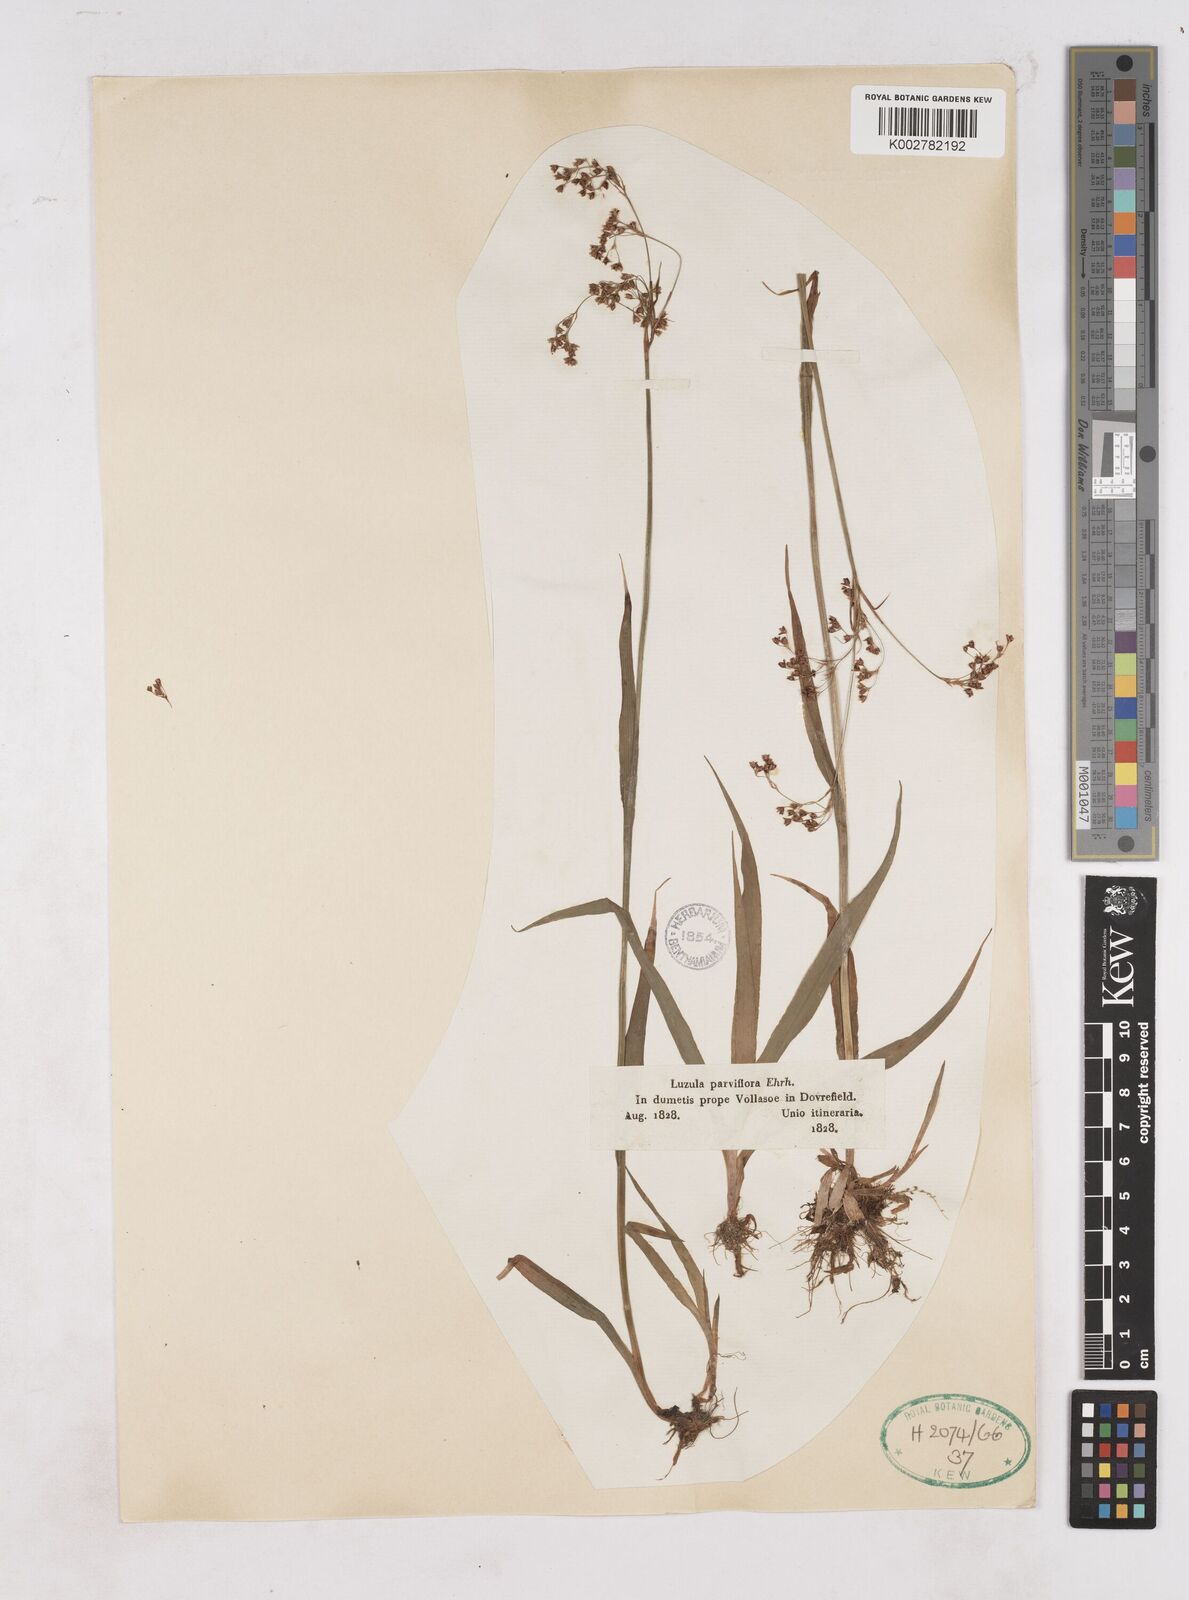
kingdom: Plantae
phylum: Tracheophyta
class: Liliopsida
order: Poales
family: Juncaceae
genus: Luzula
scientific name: Luzula parviflora
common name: Millet woodrush
